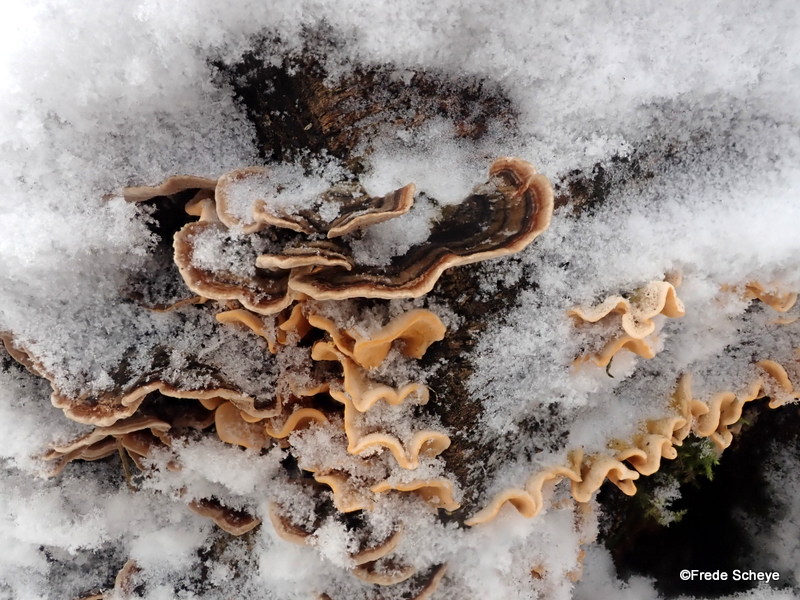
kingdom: Fungi
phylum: Basidiomycota
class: Agaricomycetes
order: Polyporales
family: Polyporaceae
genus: Trametes
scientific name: Trametes versicolor
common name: broget læderporesvamp
